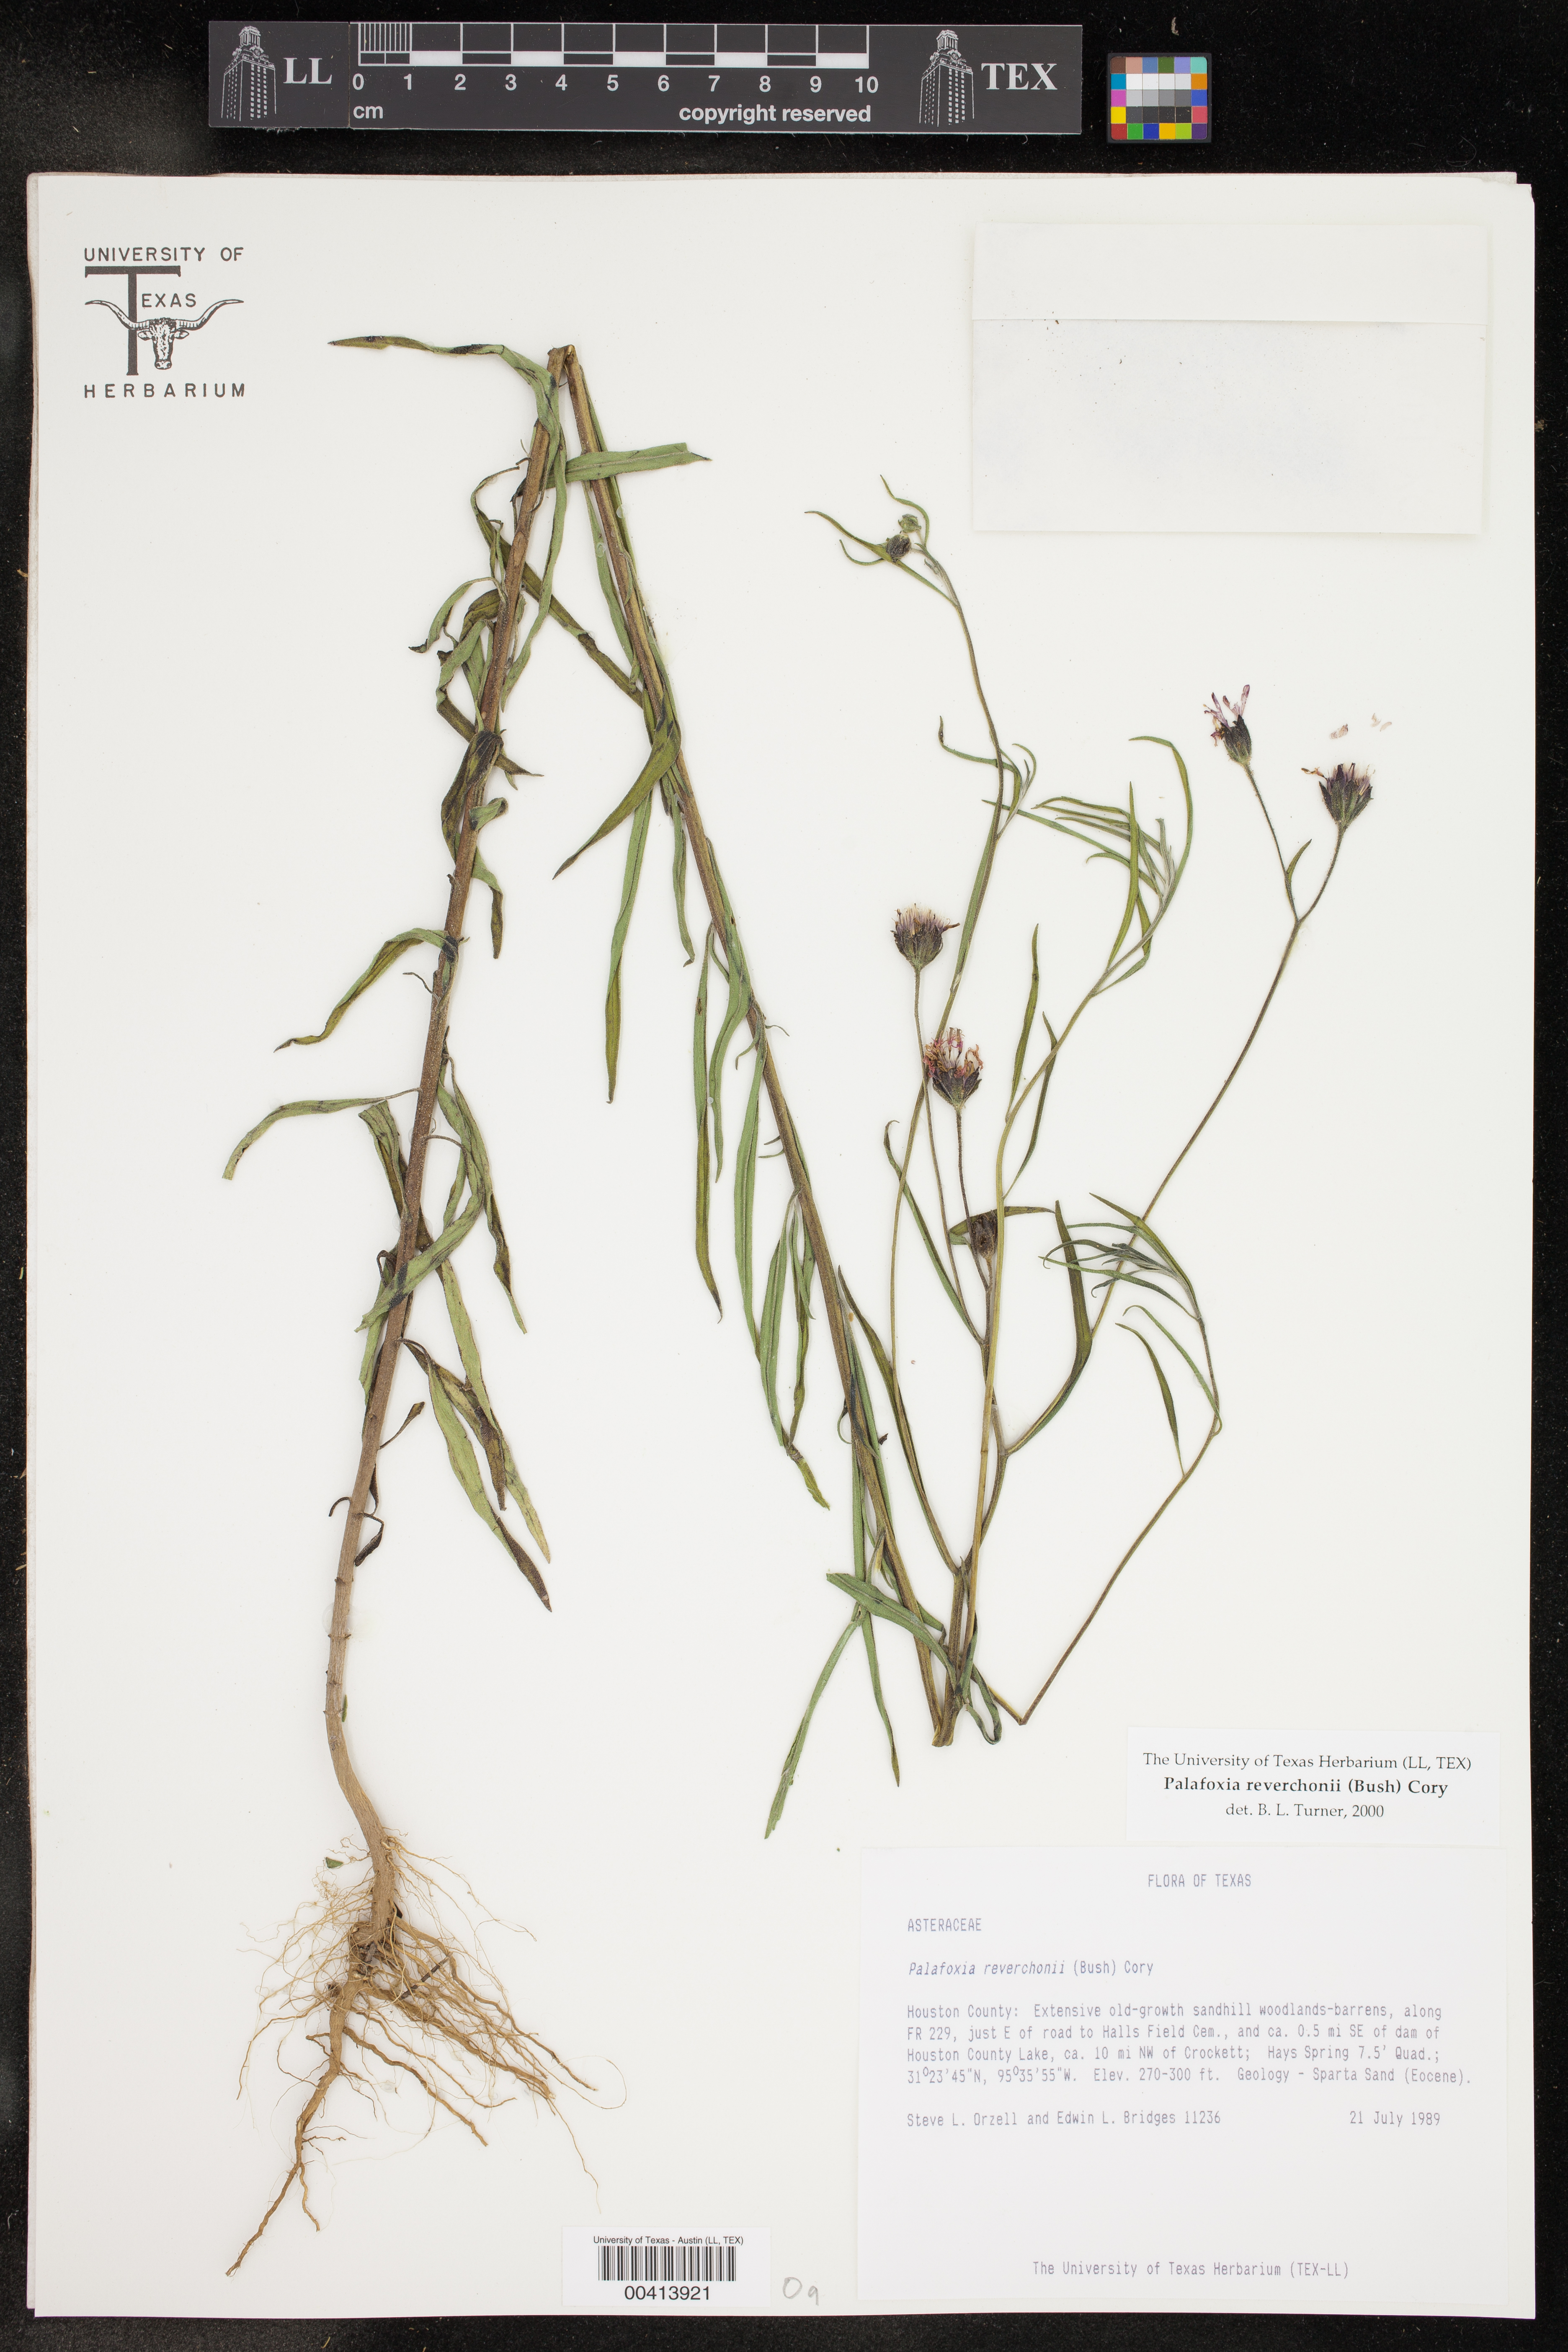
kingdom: Plantae
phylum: Tracheophyta
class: Magnoliopsida
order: Asterales
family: Asteraceae
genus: Palafoxia
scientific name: Palafoxia reverchonii
